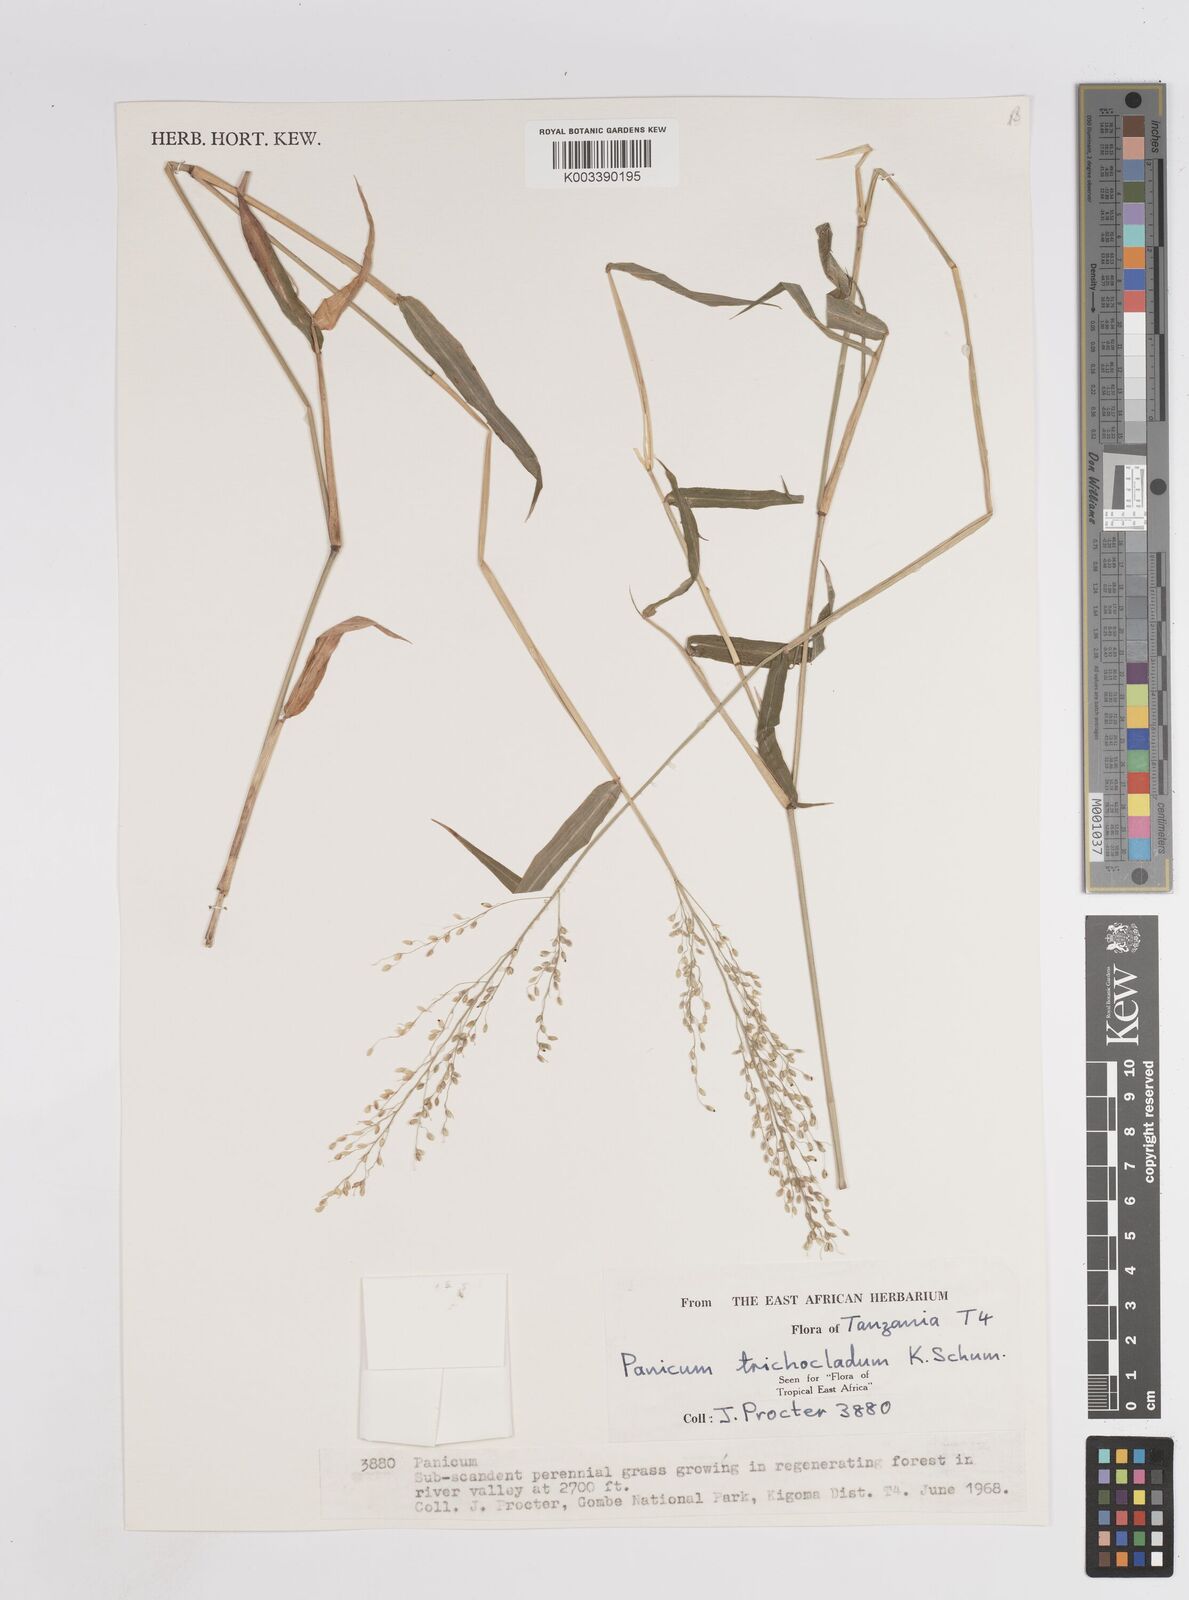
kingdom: Plantae
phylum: Tracheophyta
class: Liliopsida
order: Poales
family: Poaceae
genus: Panicum
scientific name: Panicum trichocladum
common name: Donkey grass
